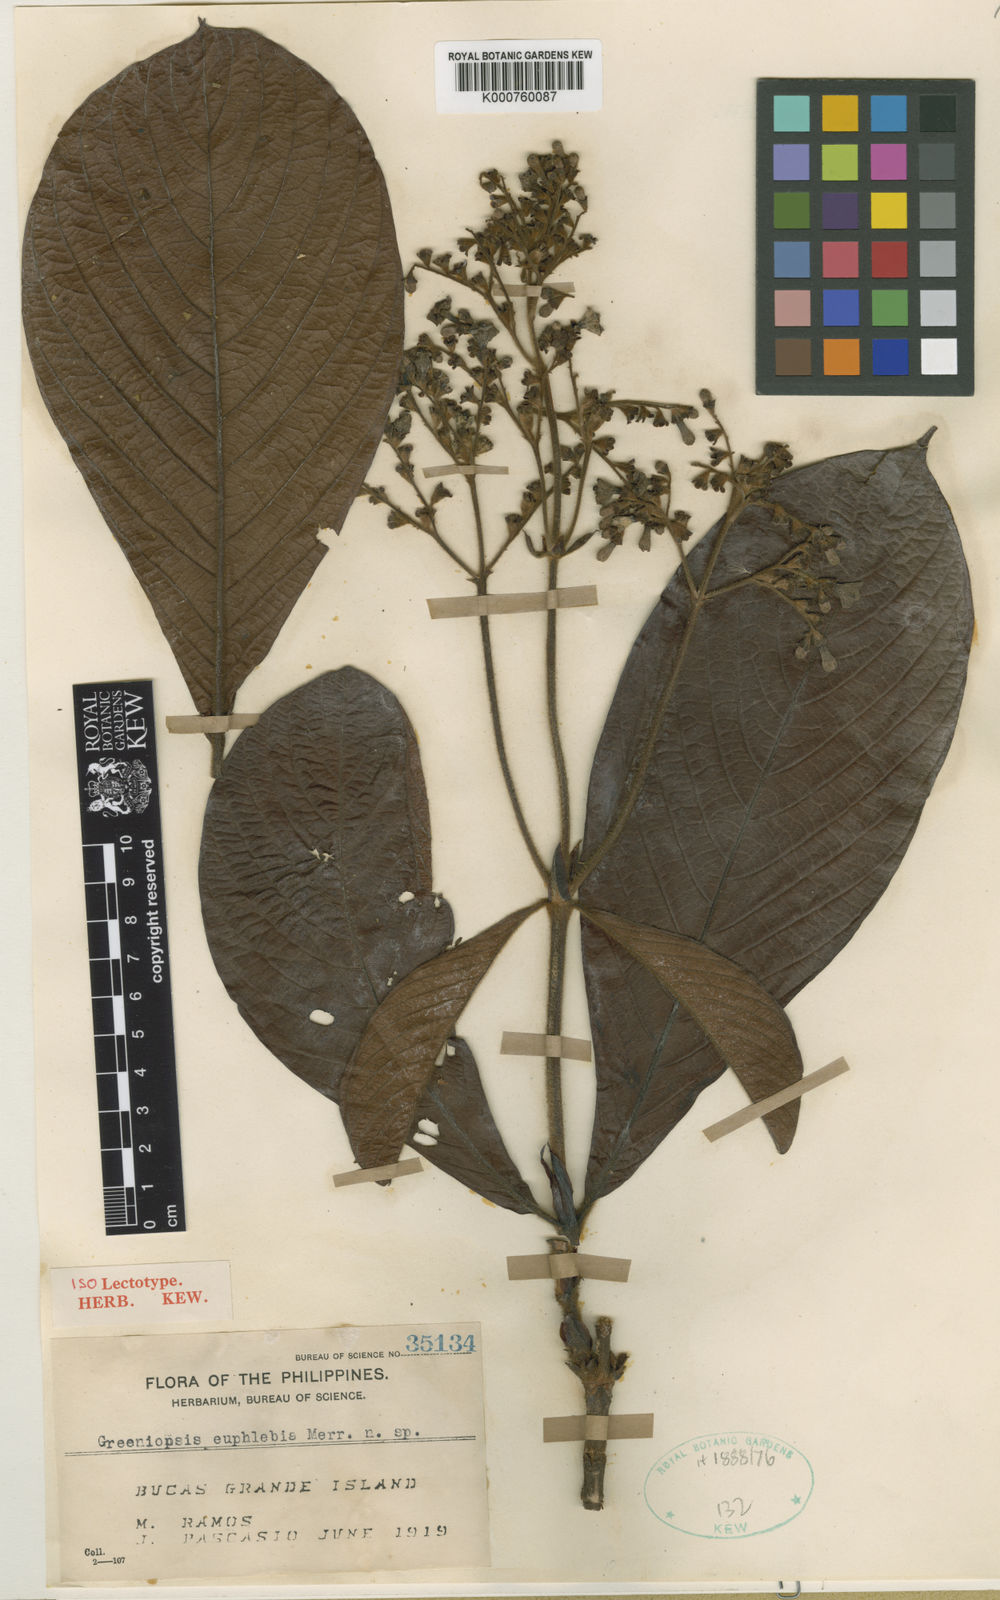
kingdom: Plantae
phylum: Tracheophyta
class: Magnoliopsida
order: Gentianales
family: Rubiaceae
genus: Greeniopsis
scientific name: Greeniopsis euphlebia
